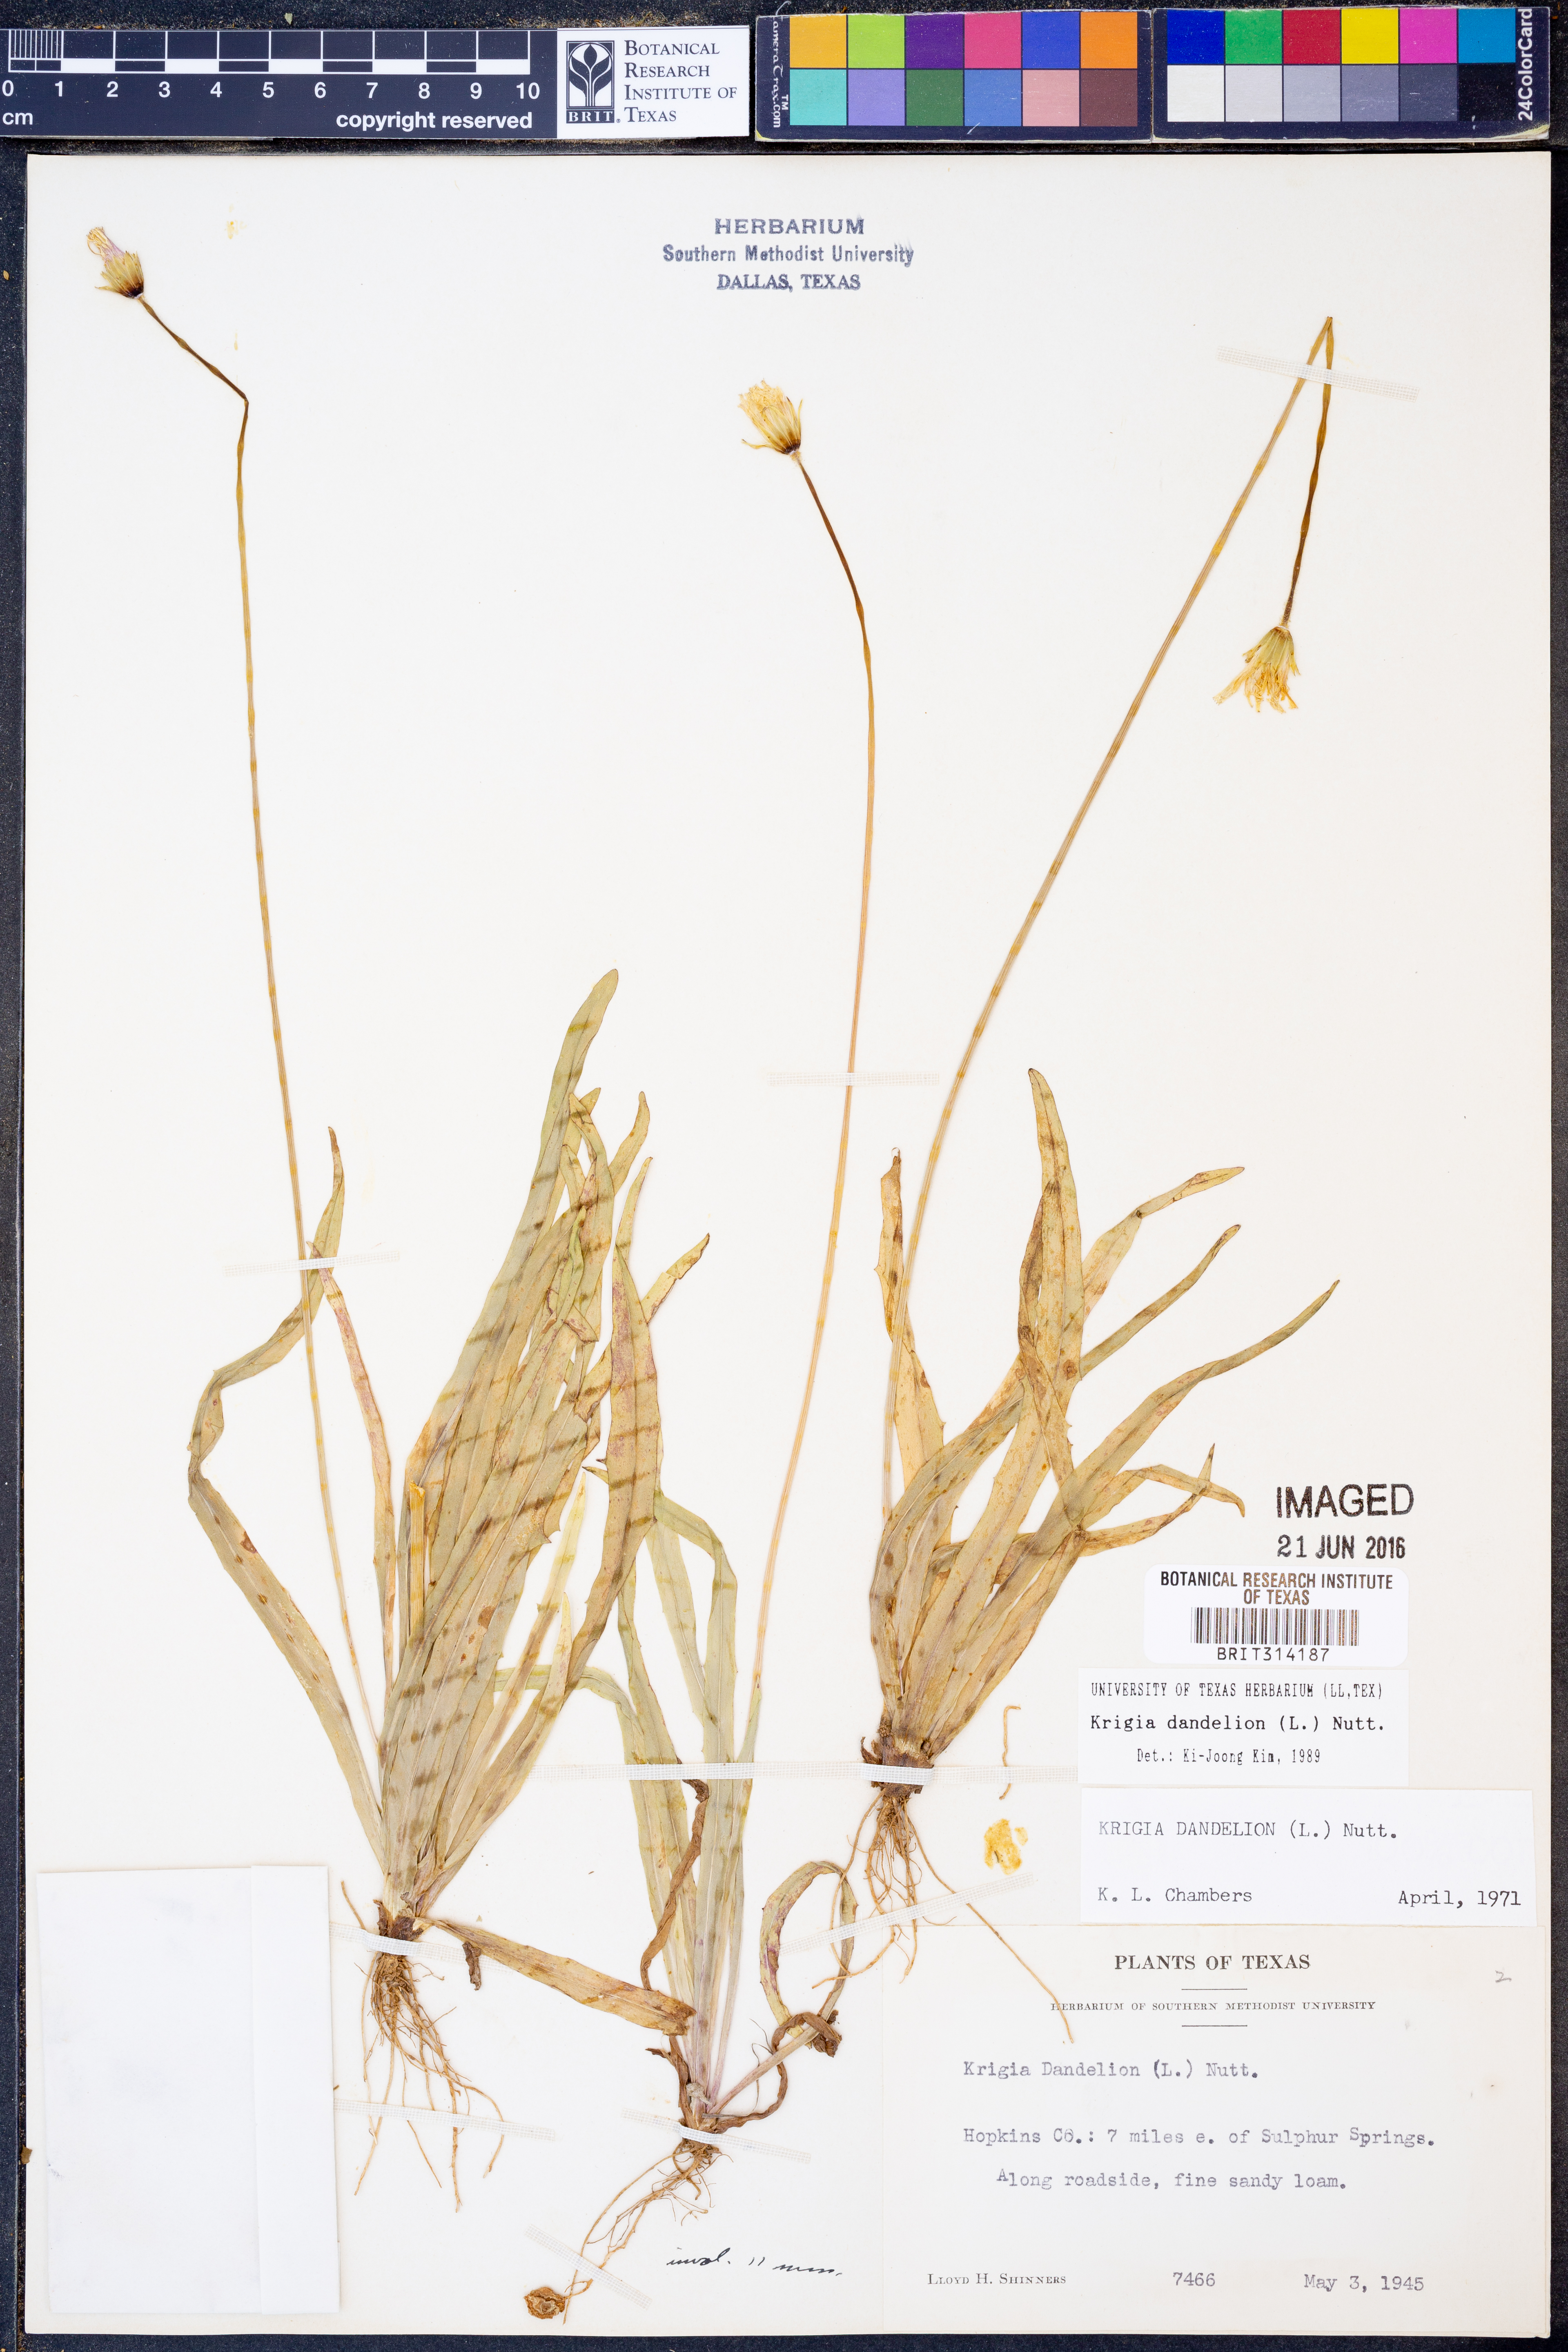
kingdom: Plantae
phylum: Tracheophyta
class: Magnoliopsida
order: Asterales
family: Asteraceae
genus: Krigia
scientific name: Krigia dandelion
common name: Colonial dwarf-dandelion
